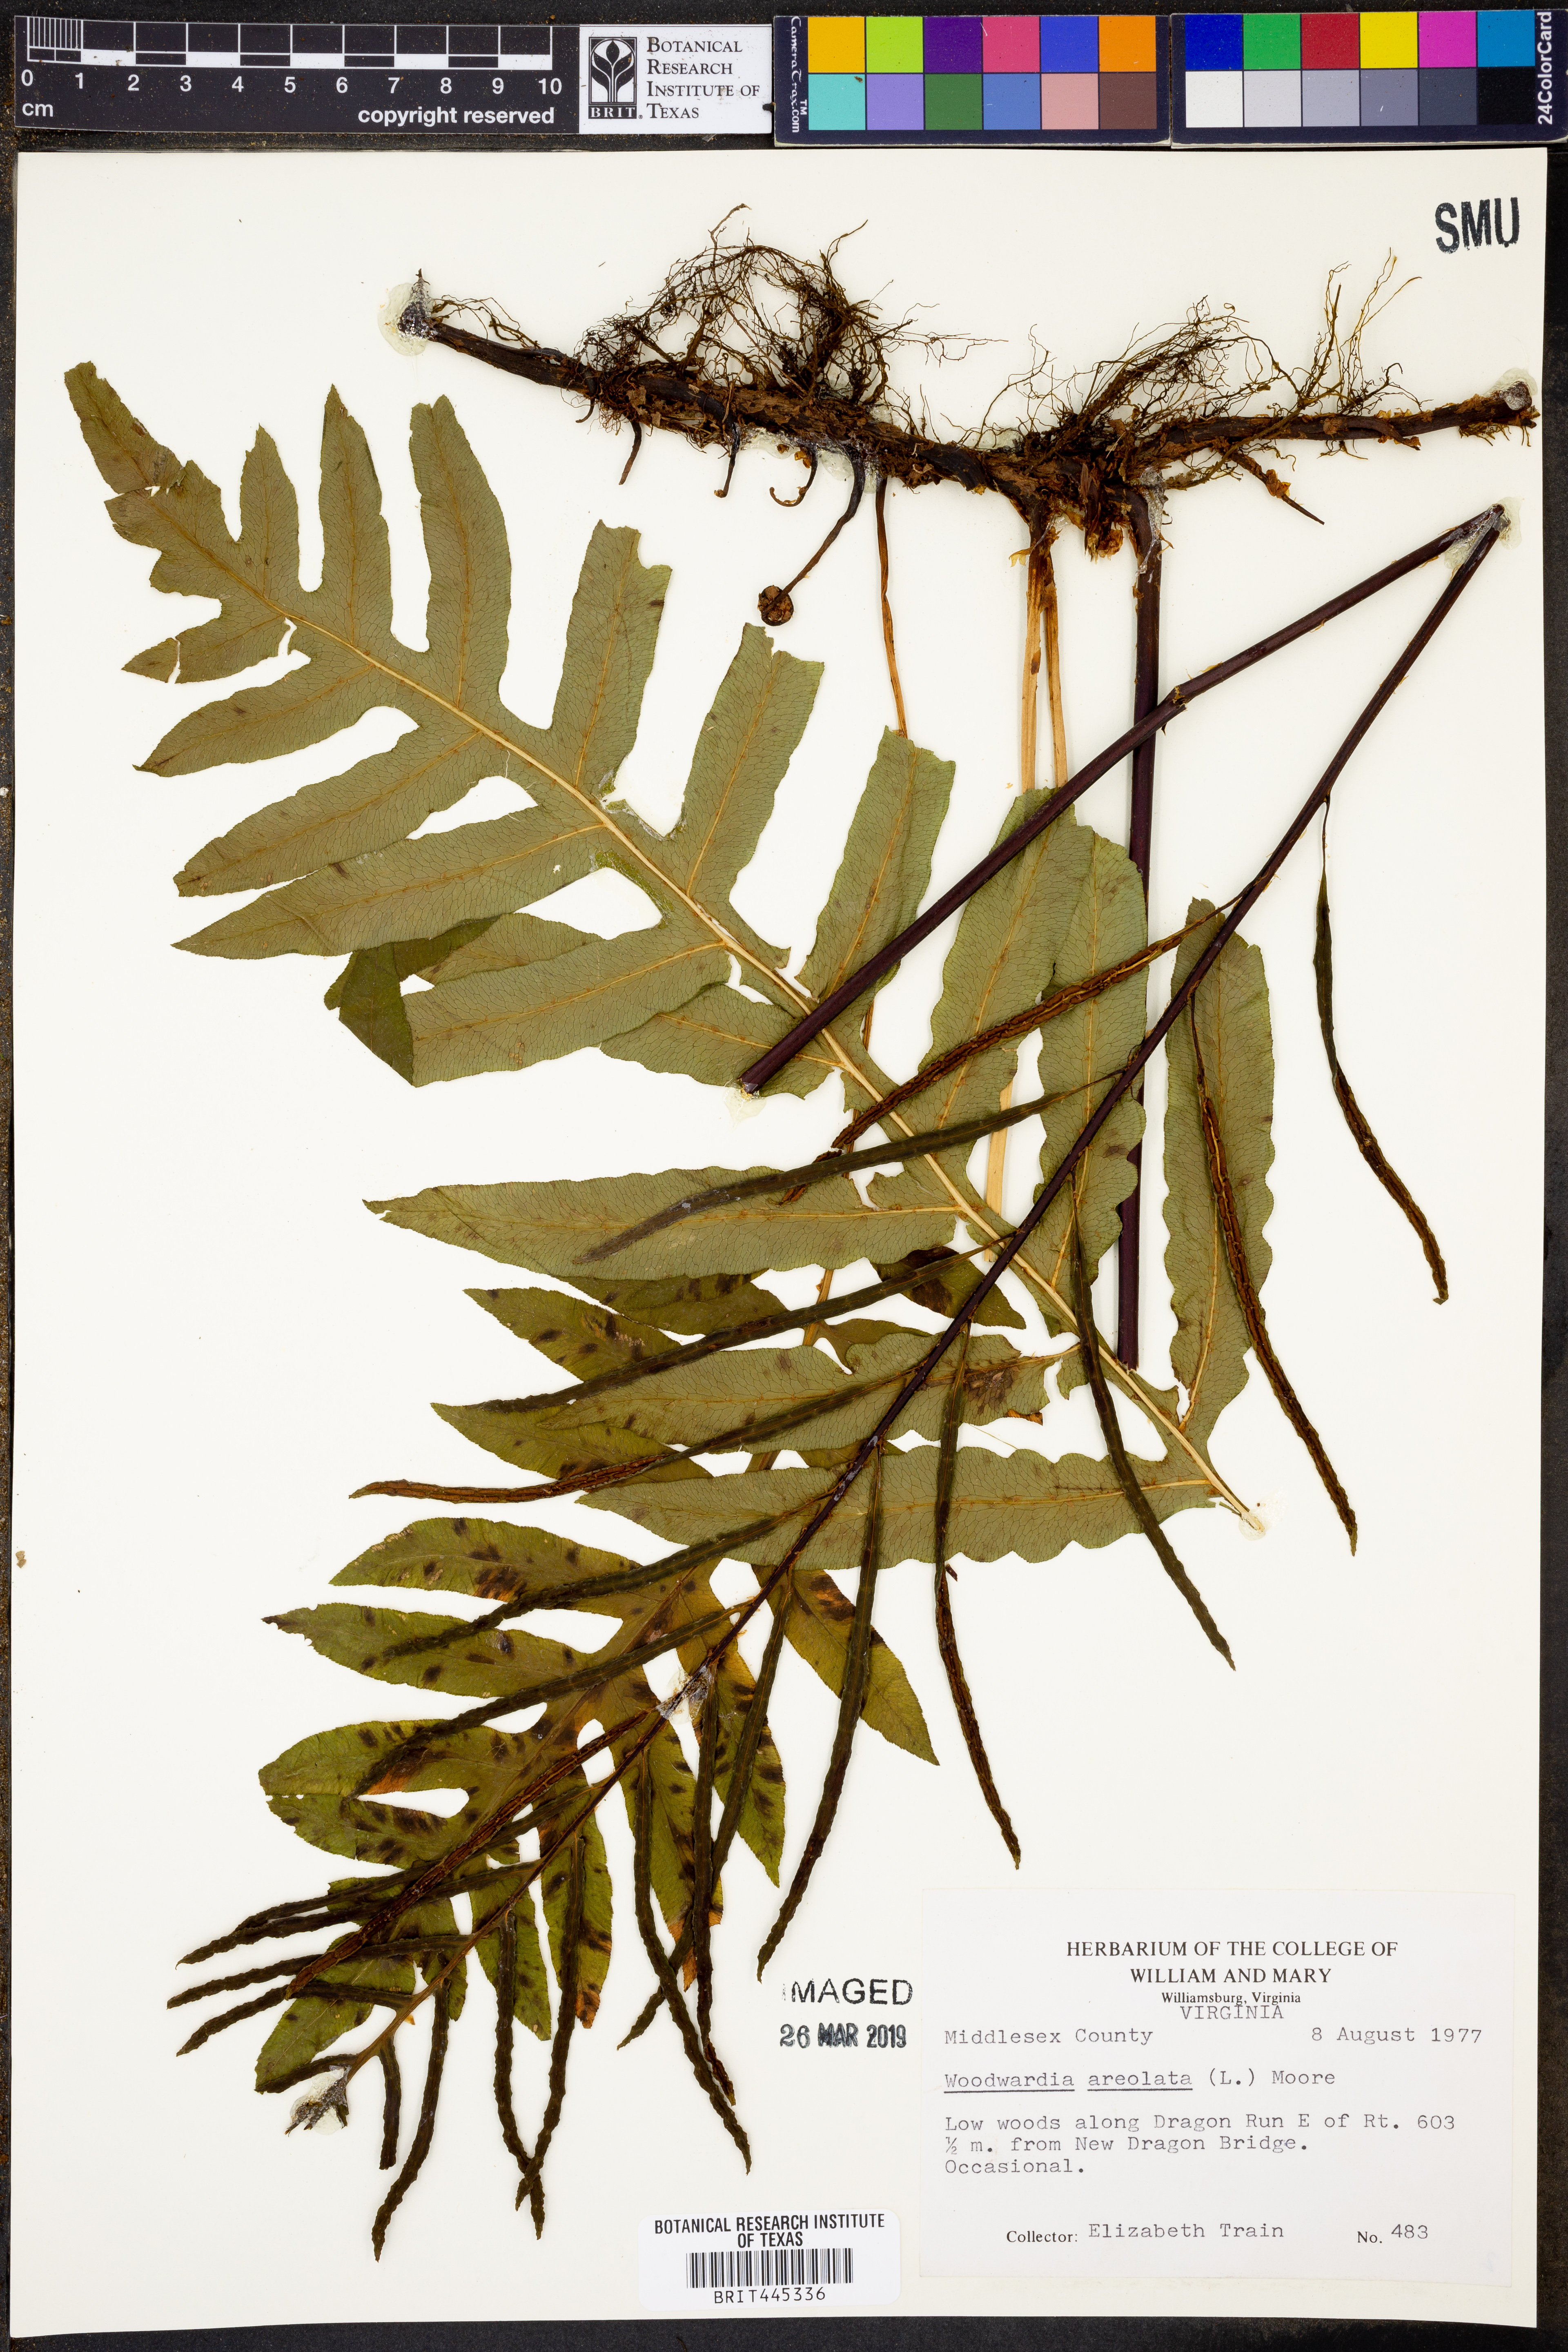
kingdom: Plantae
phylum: Tracheophyta
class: Polypodiopsida
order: Polypodiales
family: Blechnaceae
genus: Lorinseria
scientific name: Lorinseria areolata
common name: Dwarf chain fern
